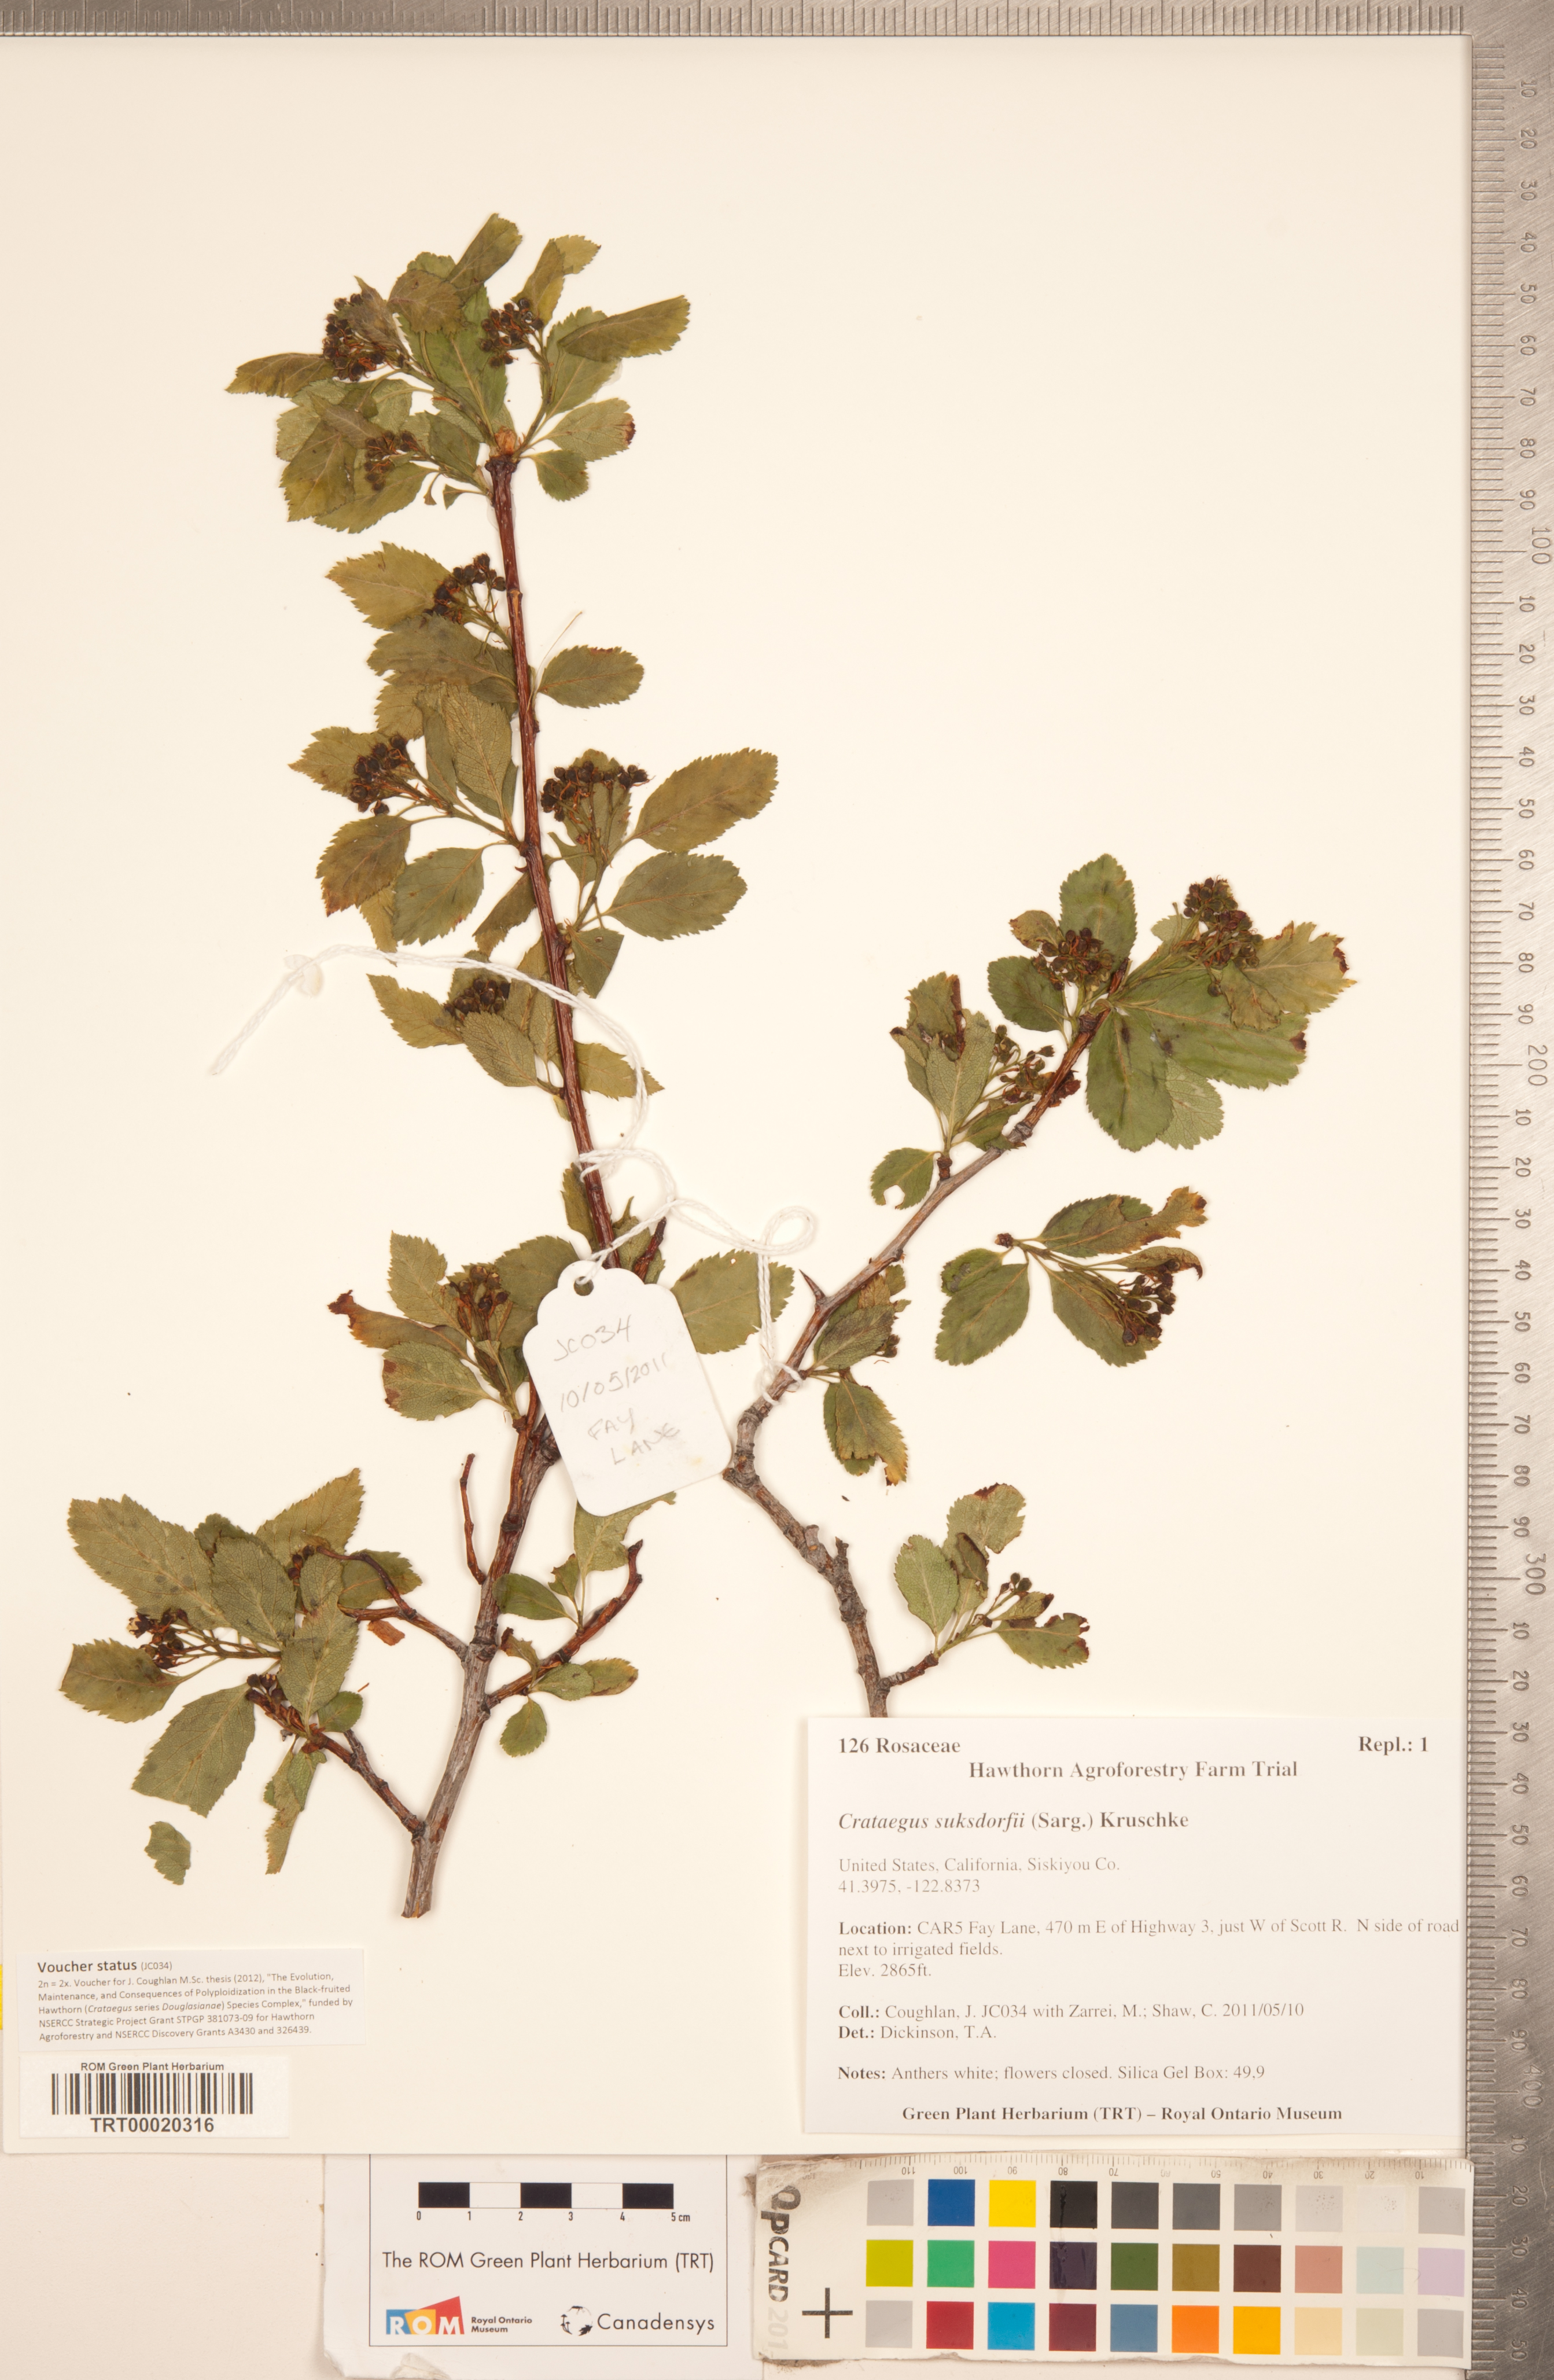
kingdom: Plantae
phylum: Tracheophyta
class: Magnoliopsida
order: Rosales
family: Rosaceae
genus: Crataegus
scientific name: Crataegus gaylussacia
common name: Huckleberry hawthorn
